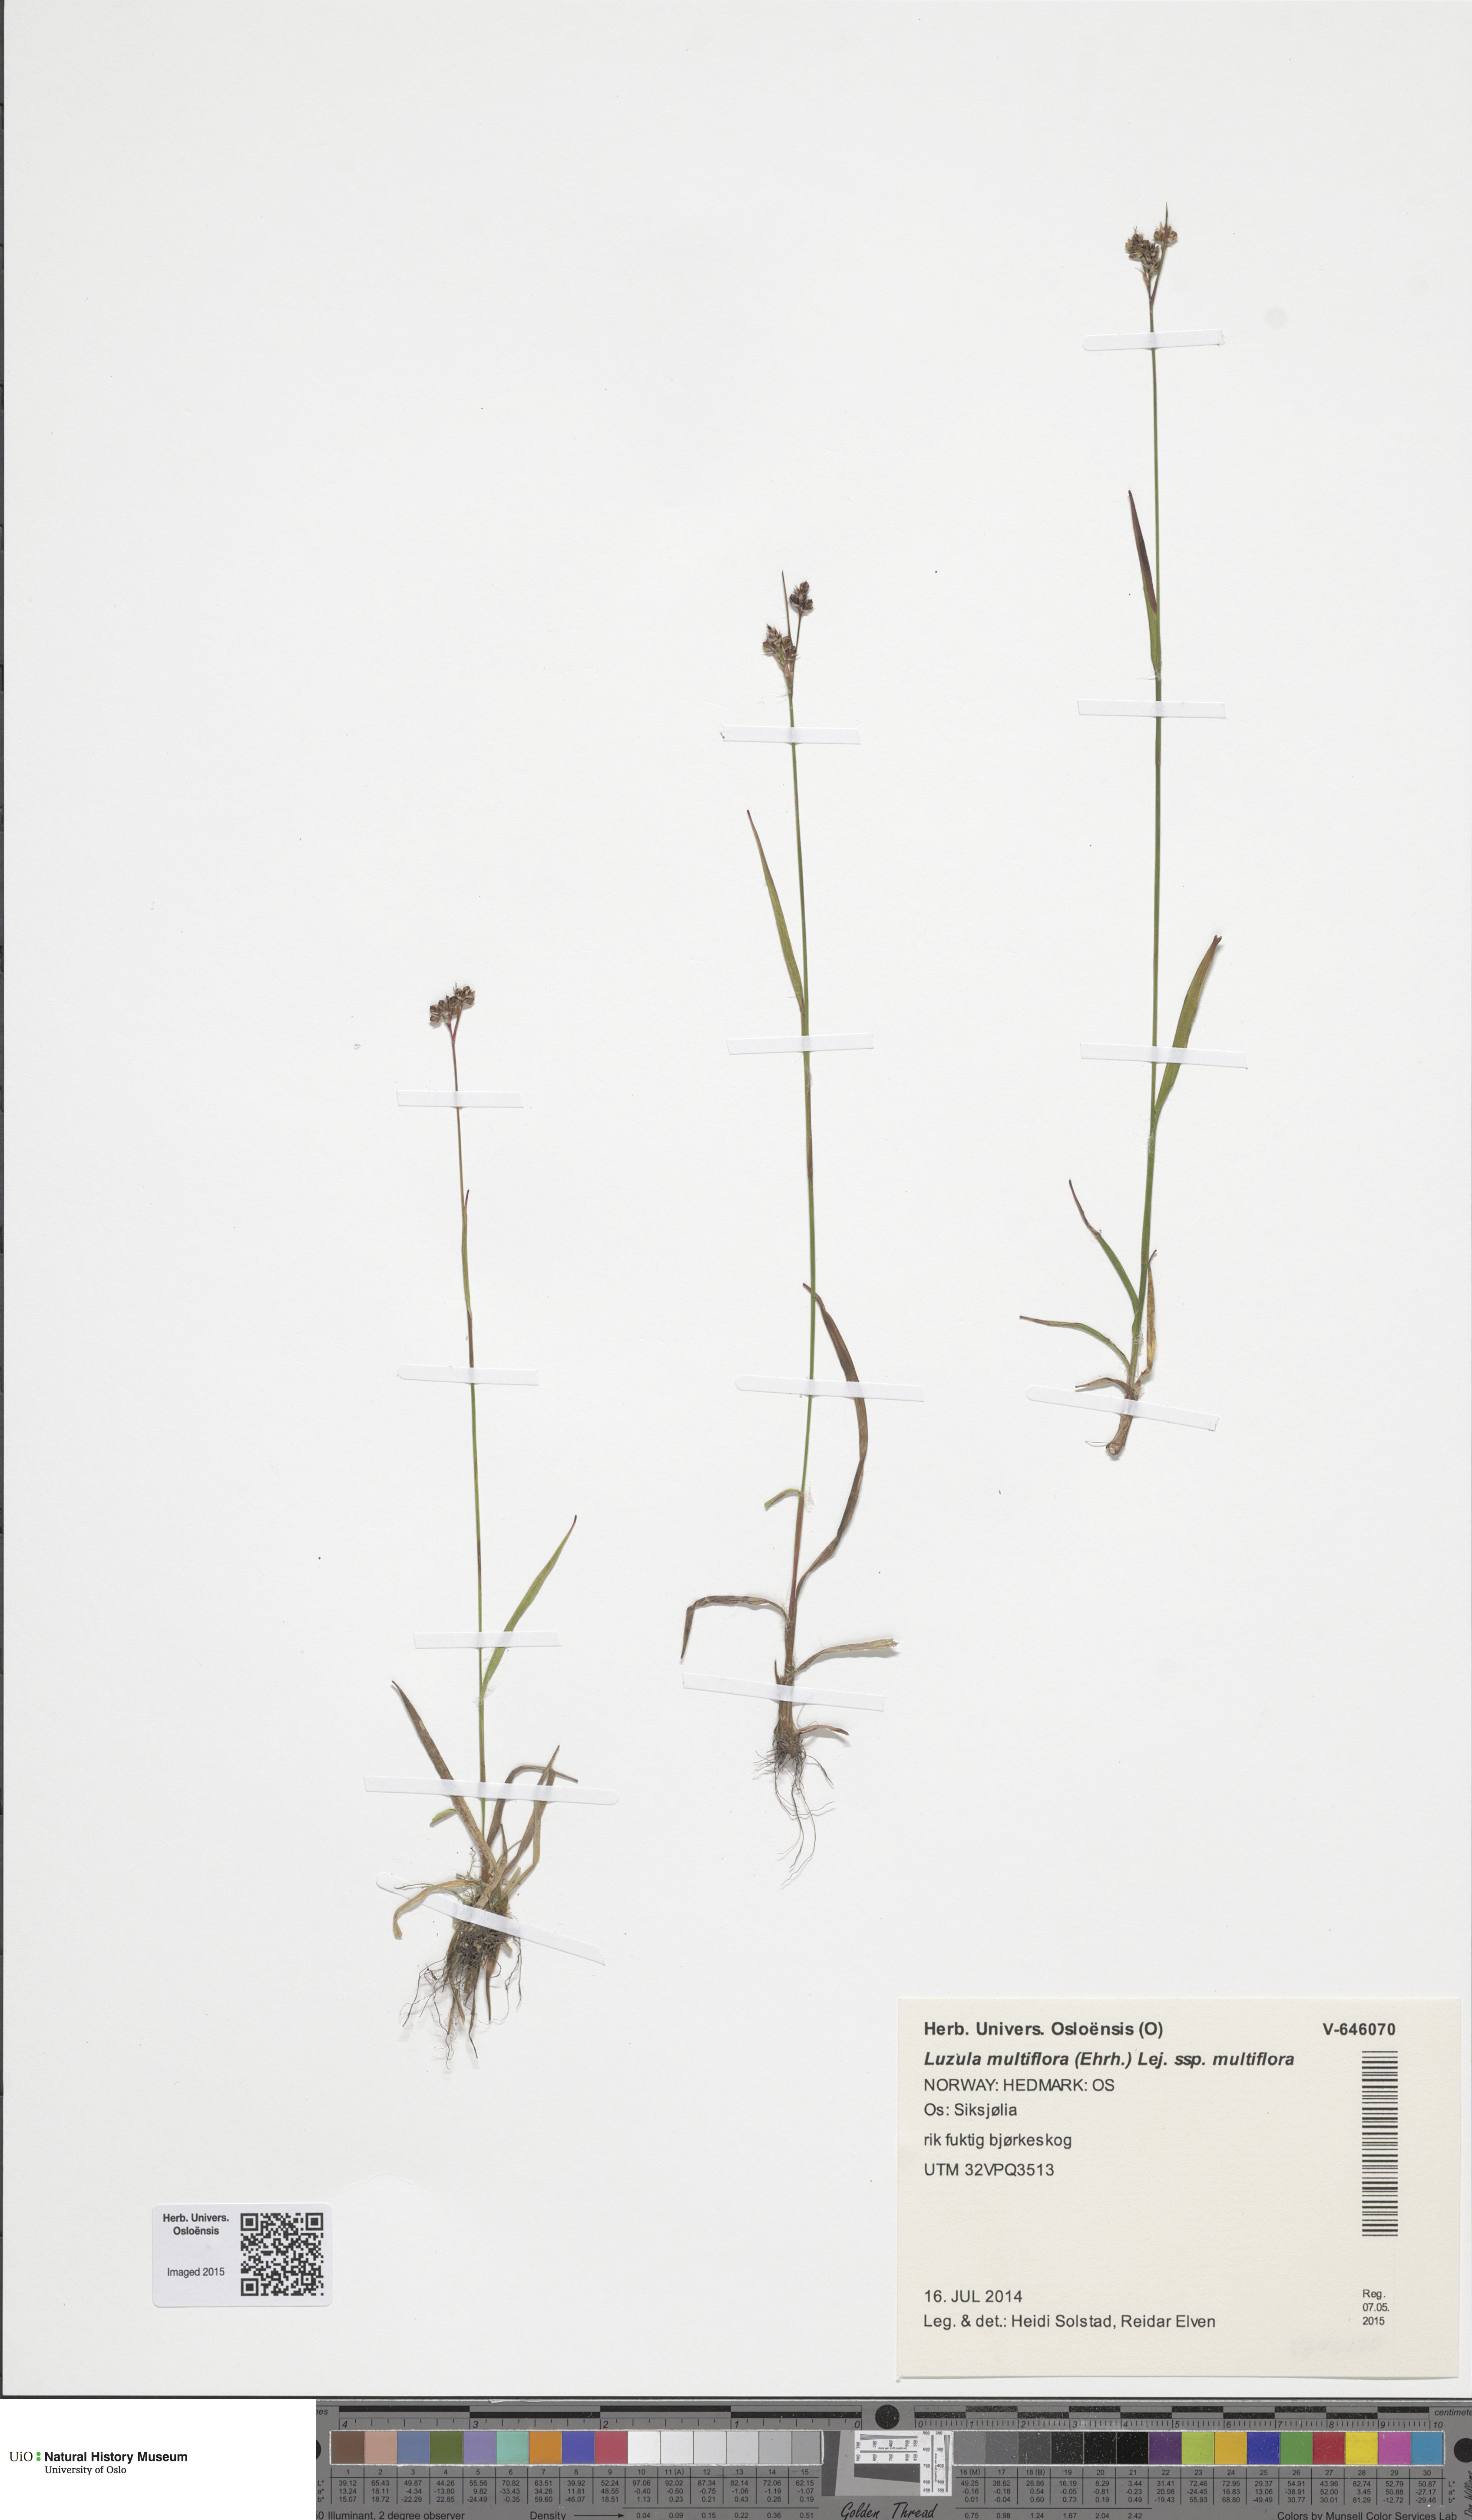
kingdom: Plantae
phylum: Tracheophyta
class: Liliopsida
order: Poales
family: Juncaceae
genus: Luzula
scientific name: Luzula multiflora
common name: Heath wood-rush
